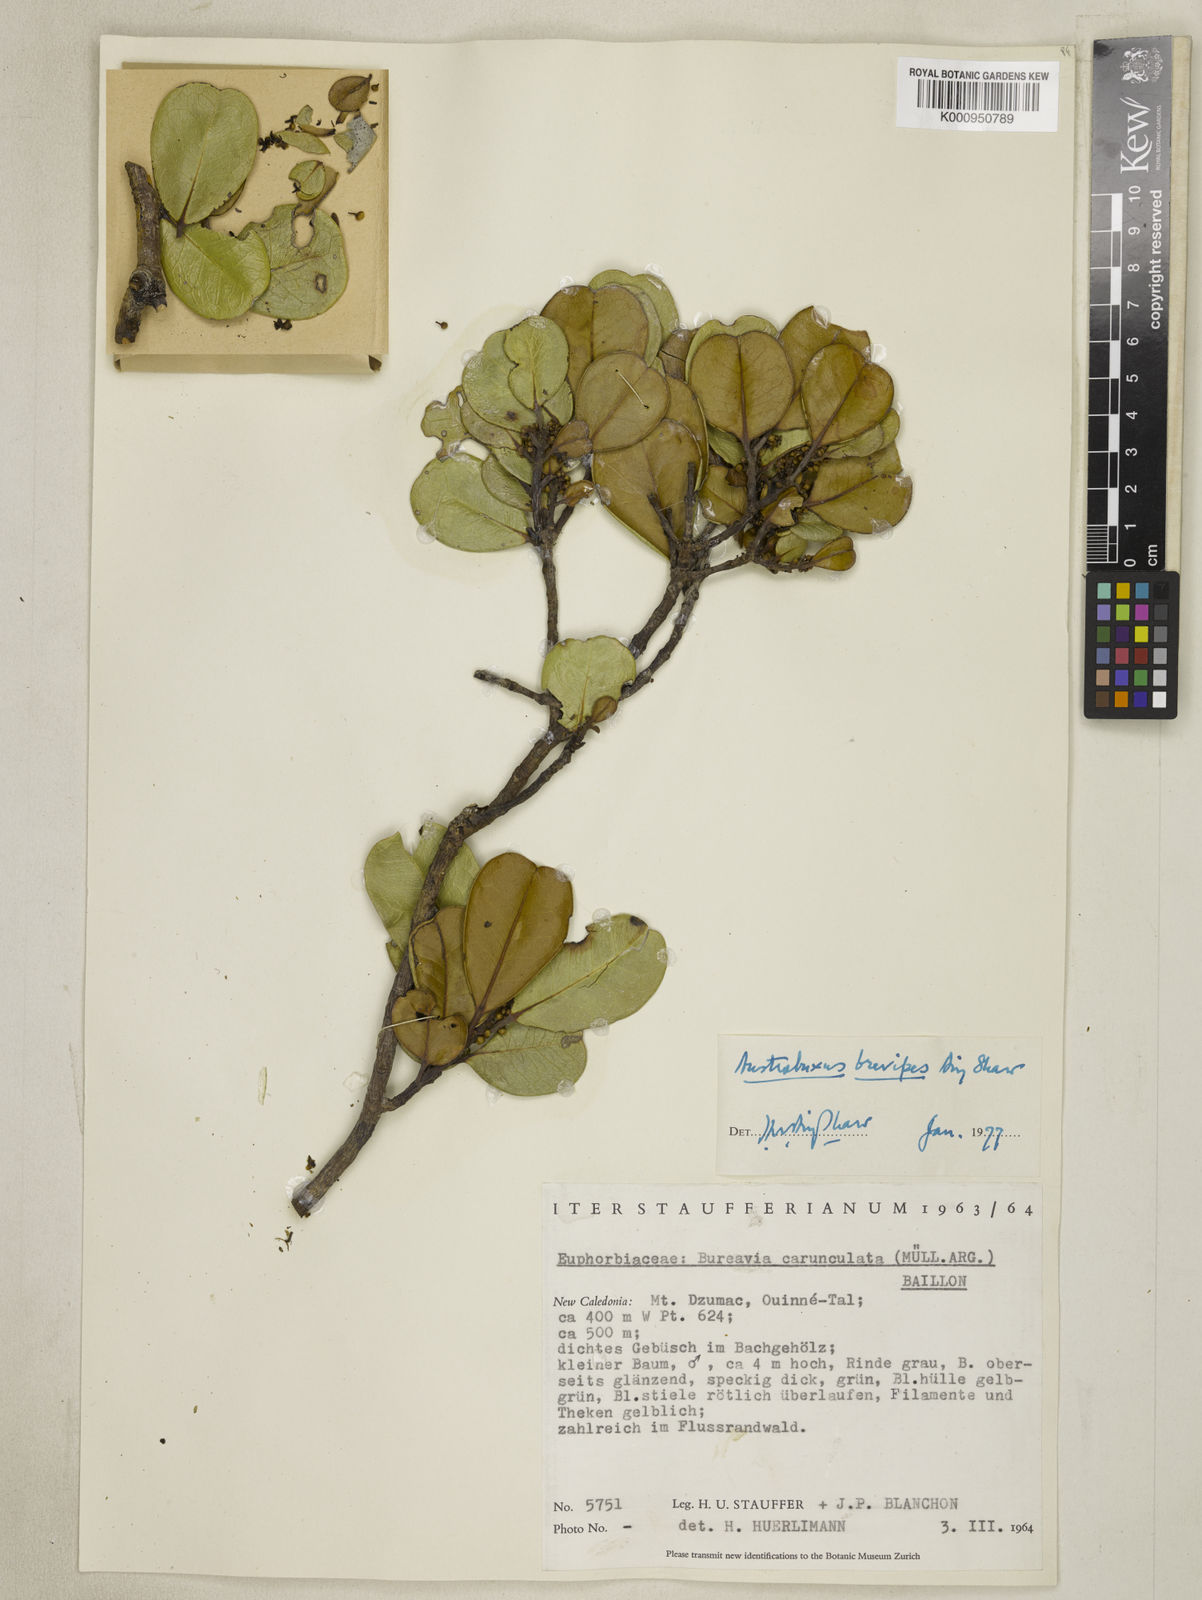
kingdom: Plantae
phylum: Tracheophyta
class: Magnoliopsida
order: Malpighiales
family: Picrodendraceae
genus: Austrobuxus
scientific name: Austrobuxus brevipes
